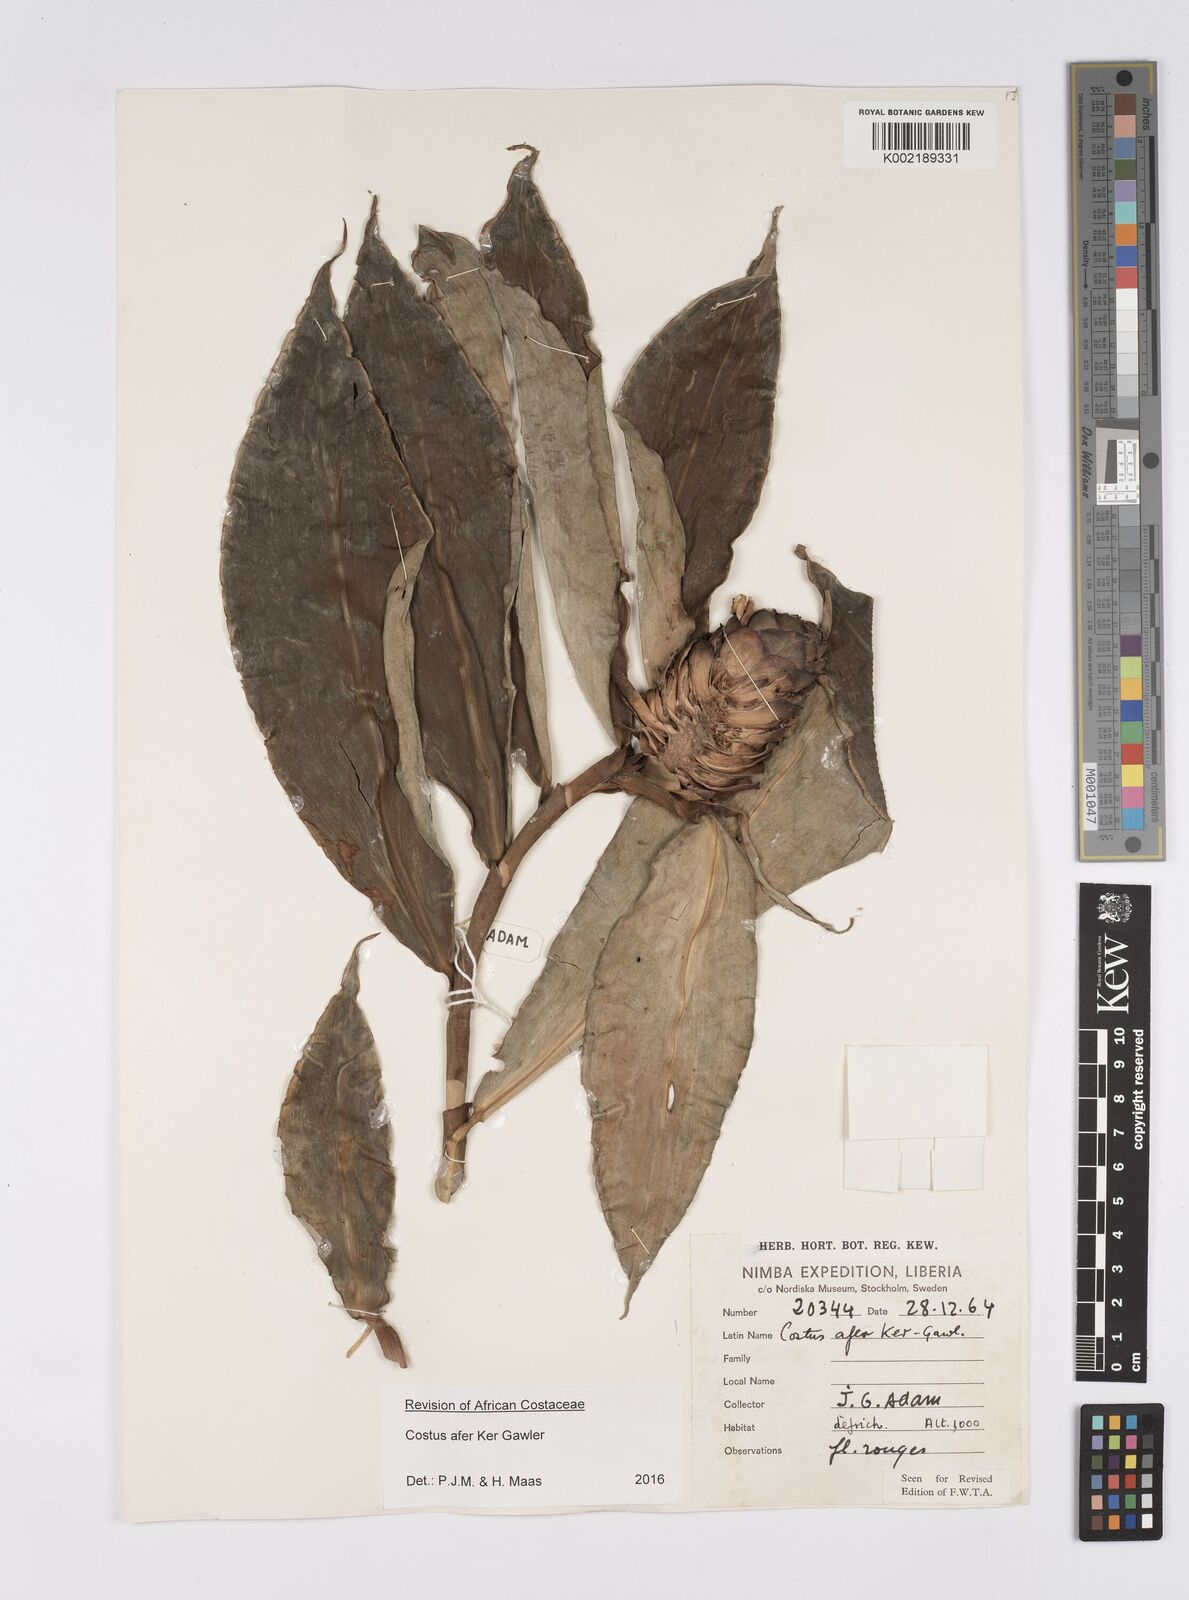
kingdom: Plantae
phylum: Tracheophyta
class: Liliopsida
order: Zingiberales
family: Costaceae
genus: Costus
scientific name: Costus afer
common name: Spiral-ginger
